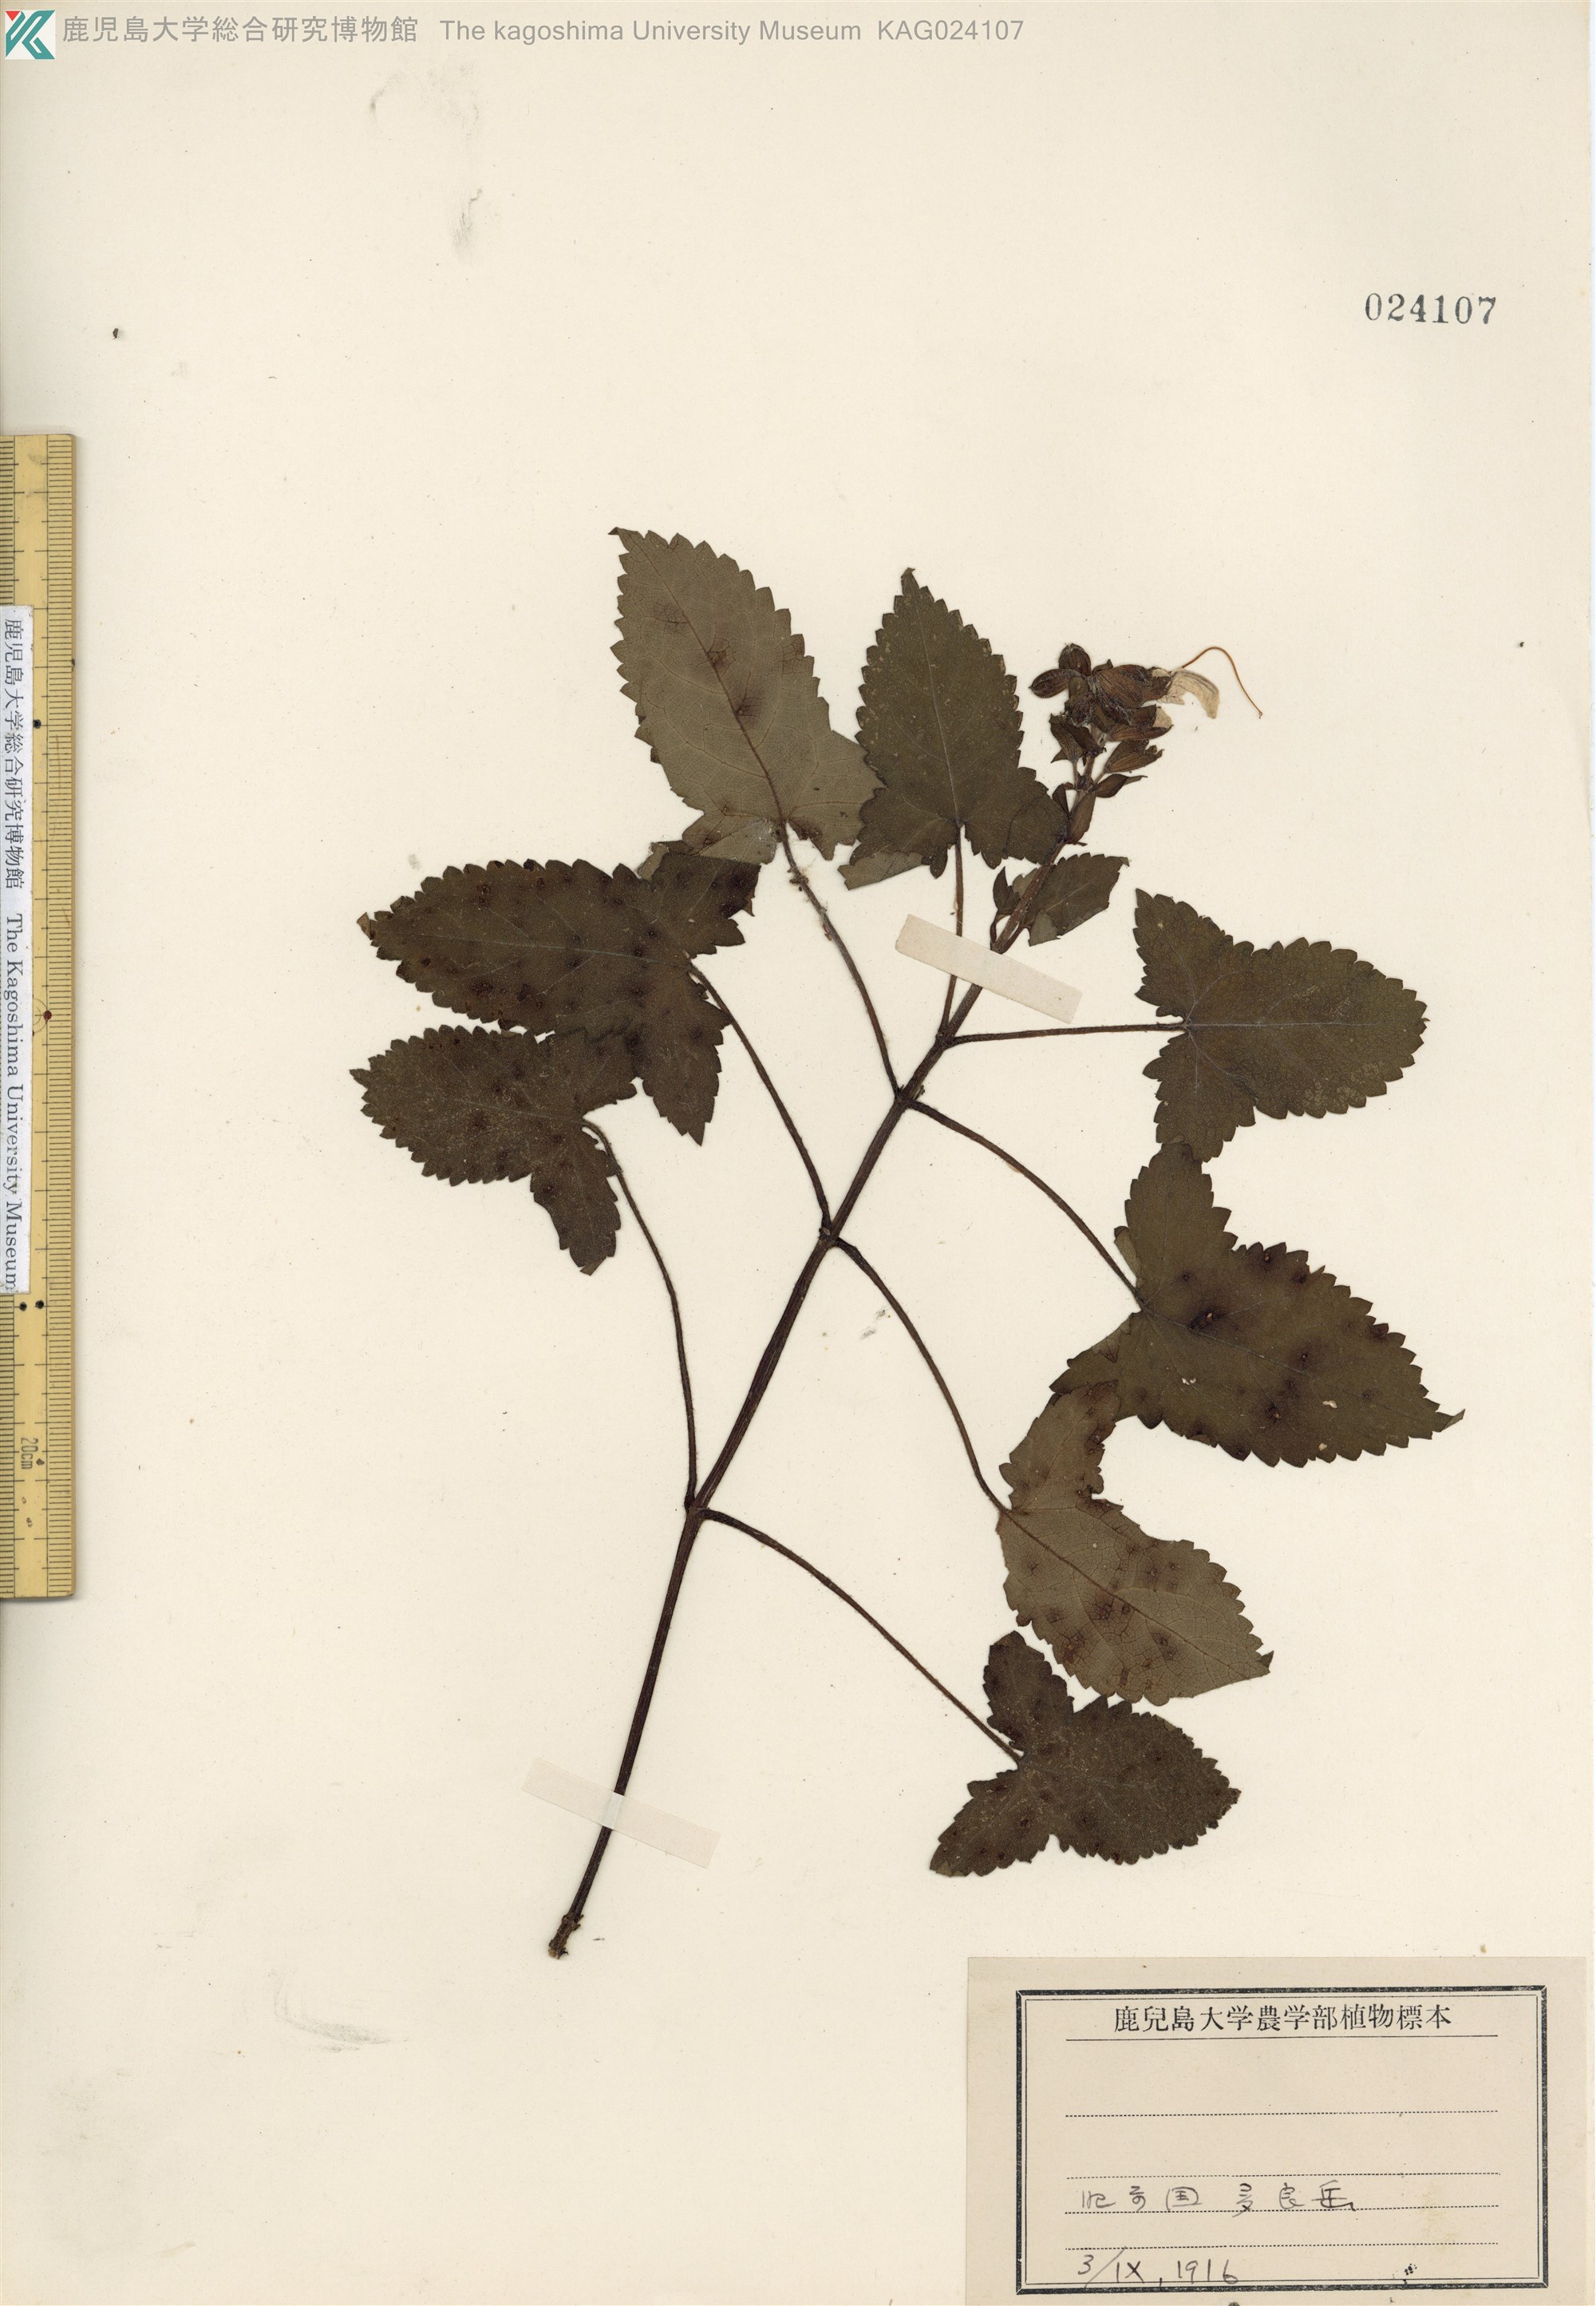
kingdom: Plantae
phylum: Tracheophyta
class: Magnoliopsida
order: Lamiales
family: Lamiaceae
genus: Salvia
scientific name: Salvia nipponica
